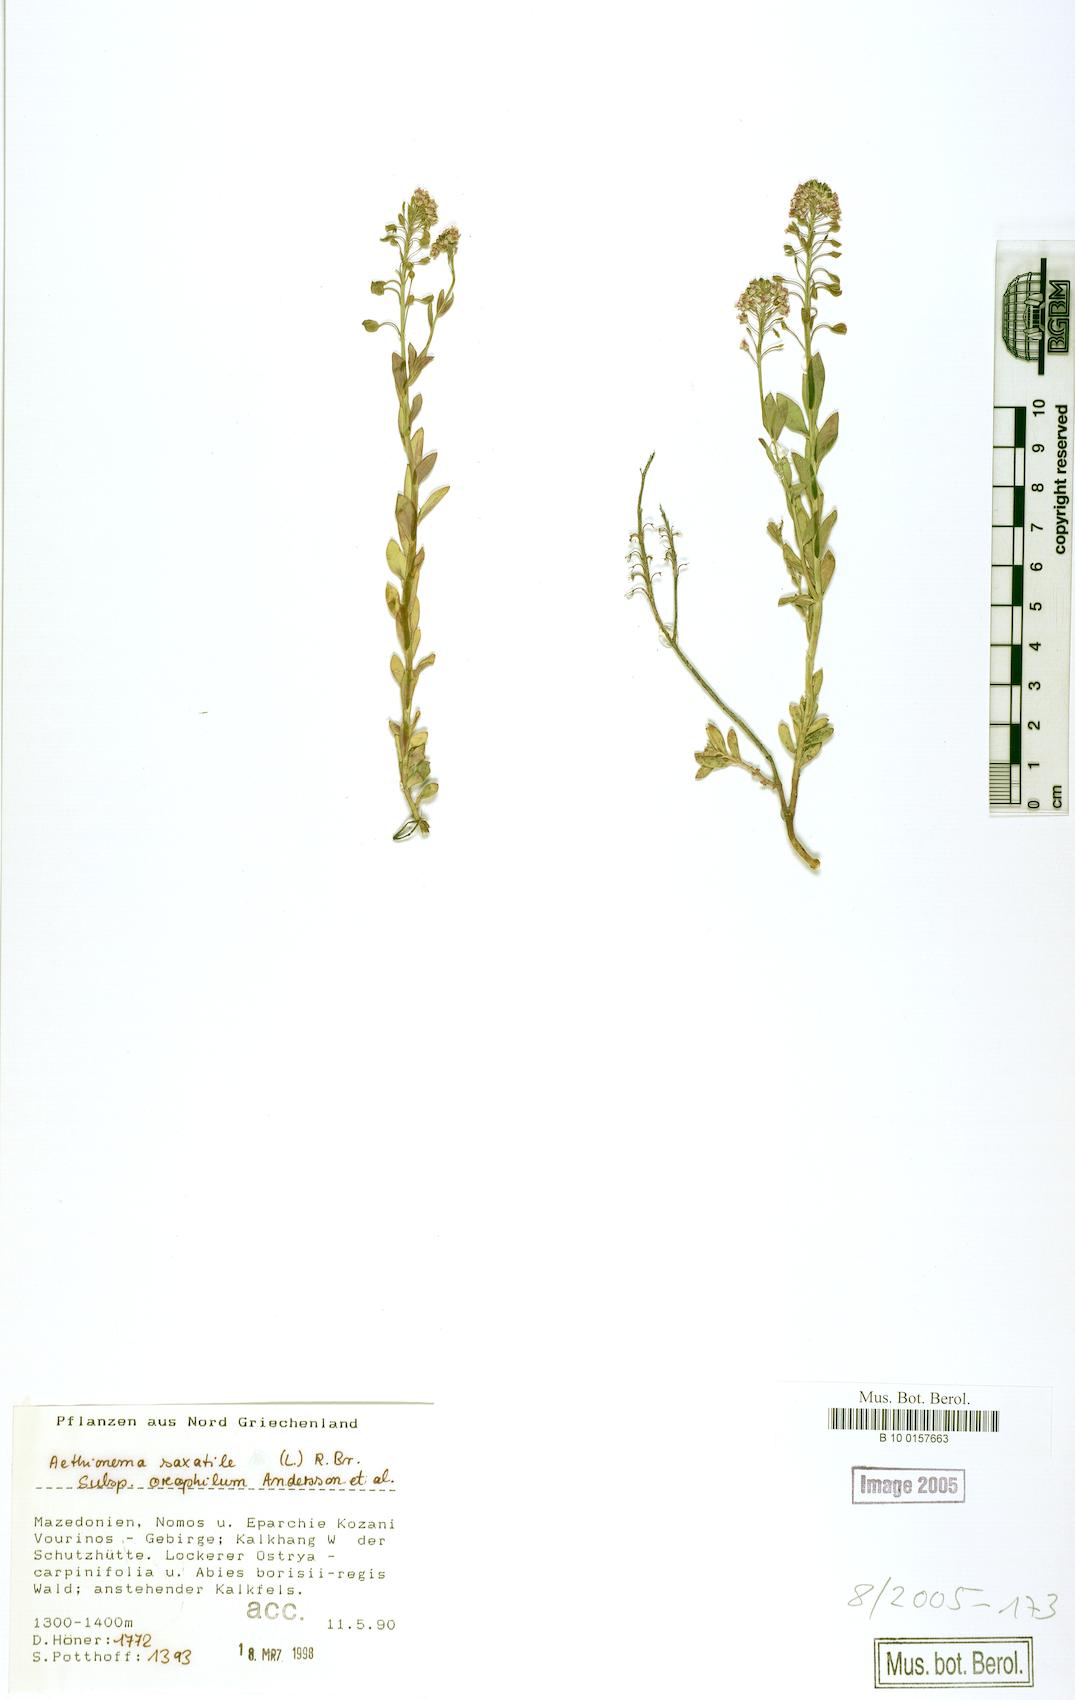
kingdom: Plantae
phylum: Tracheophyta
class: Magnoliopsida
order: Brassicales
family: Brassicaceae
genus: Aethionema
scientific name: Aethionema saxatile
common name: Burnt candytuft
